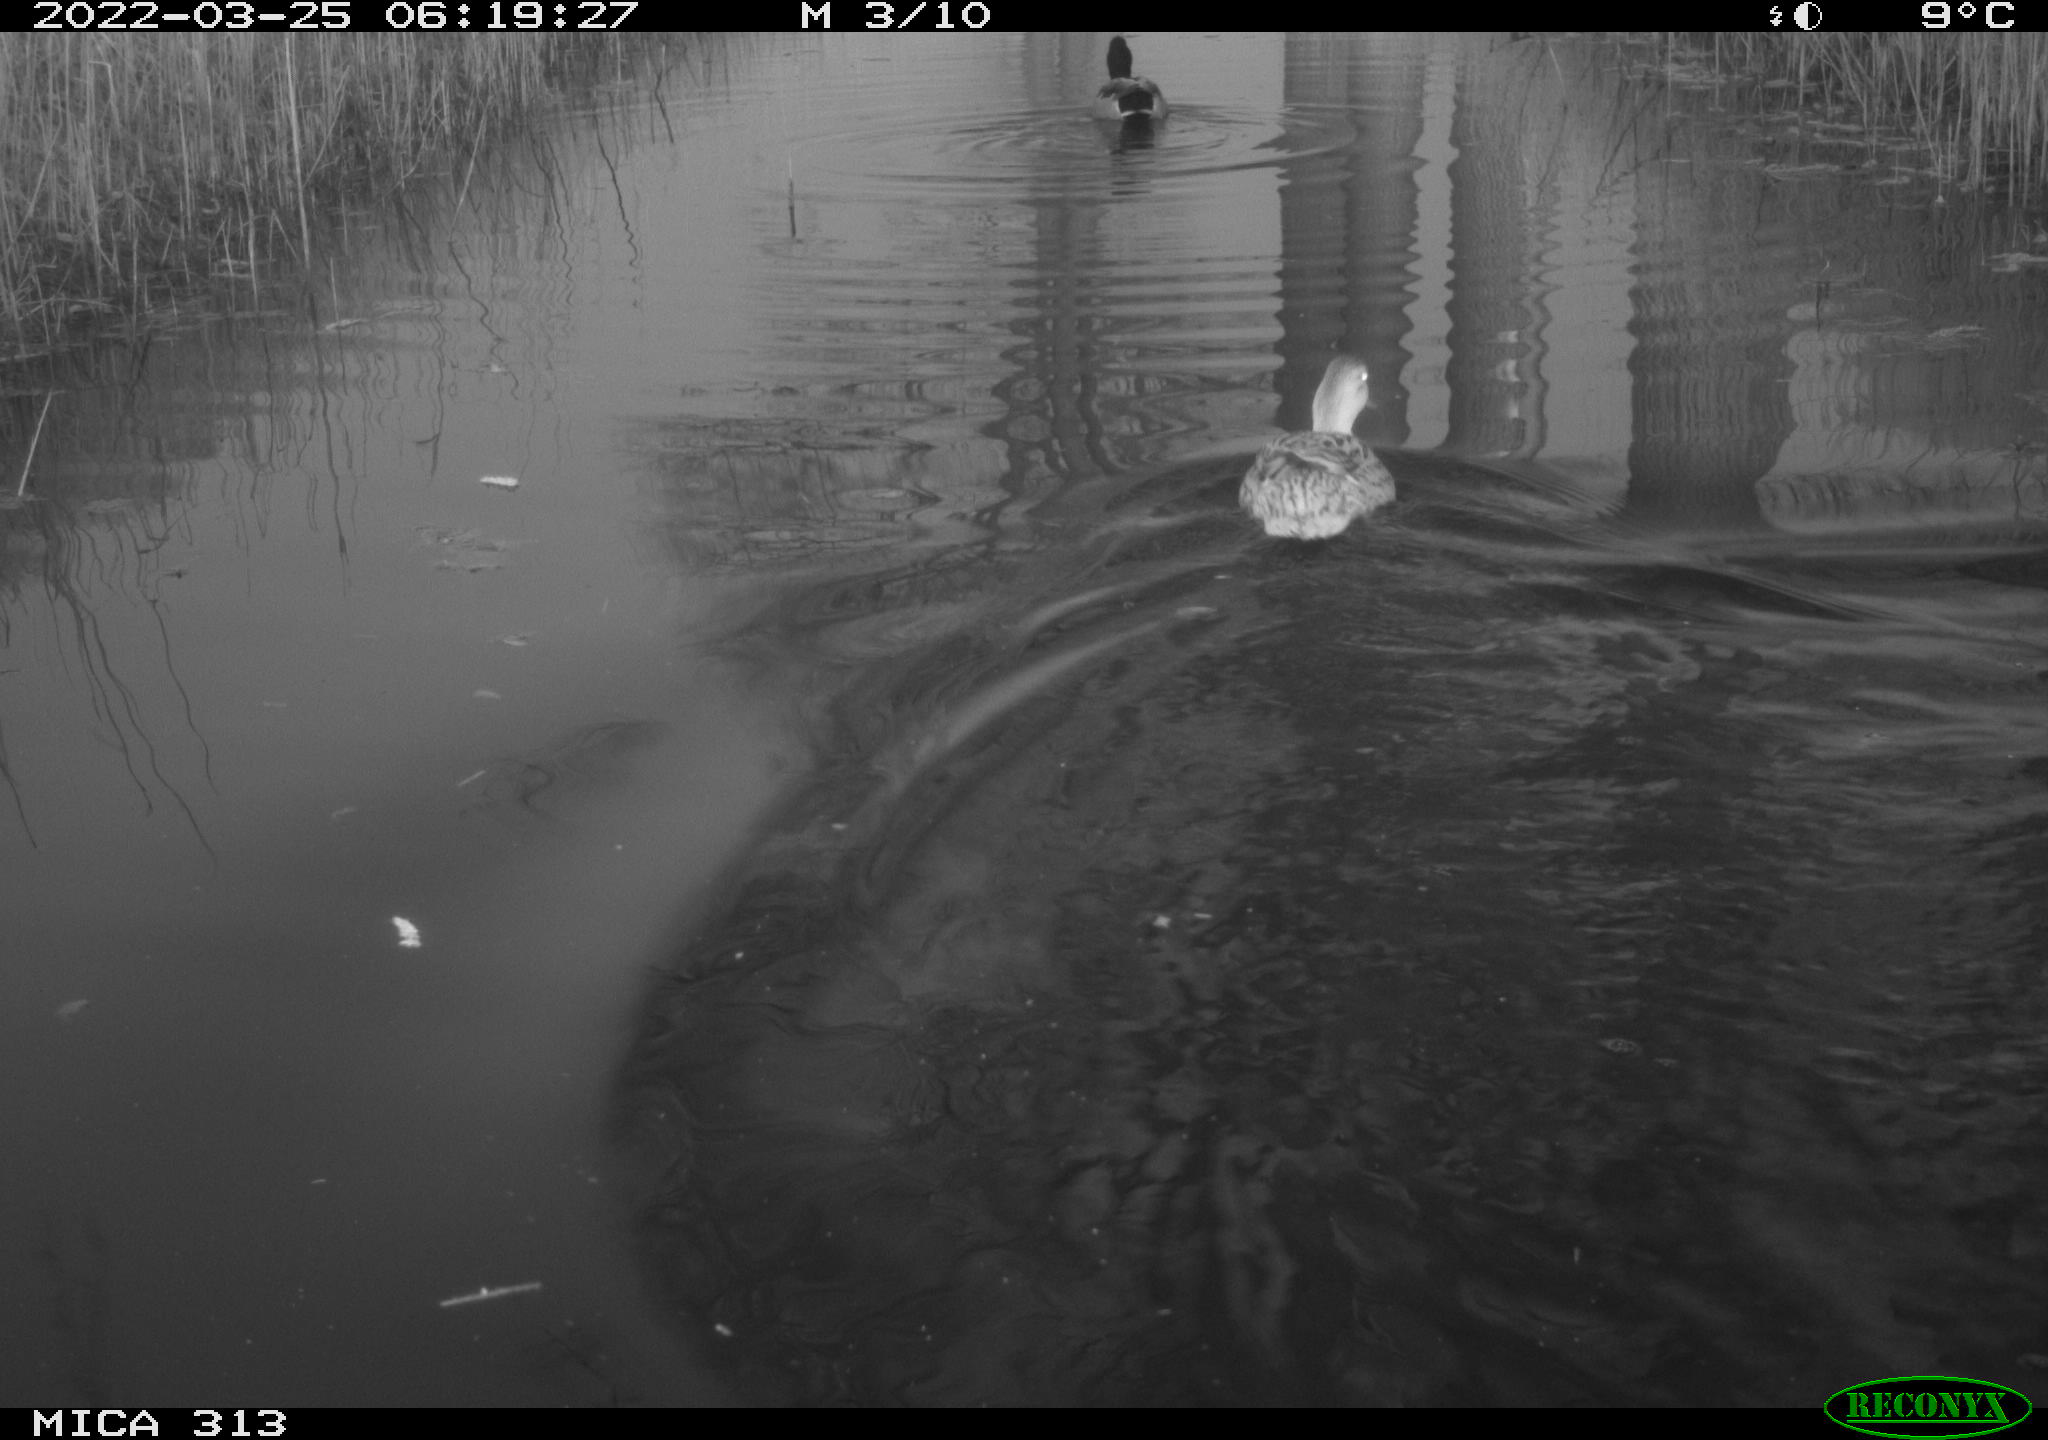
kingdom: Animalia
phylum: Chordata
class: Aves
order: Anseriformes
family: Anatidae
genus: Mareca
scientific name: Mareca strepera
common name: Gadwall
